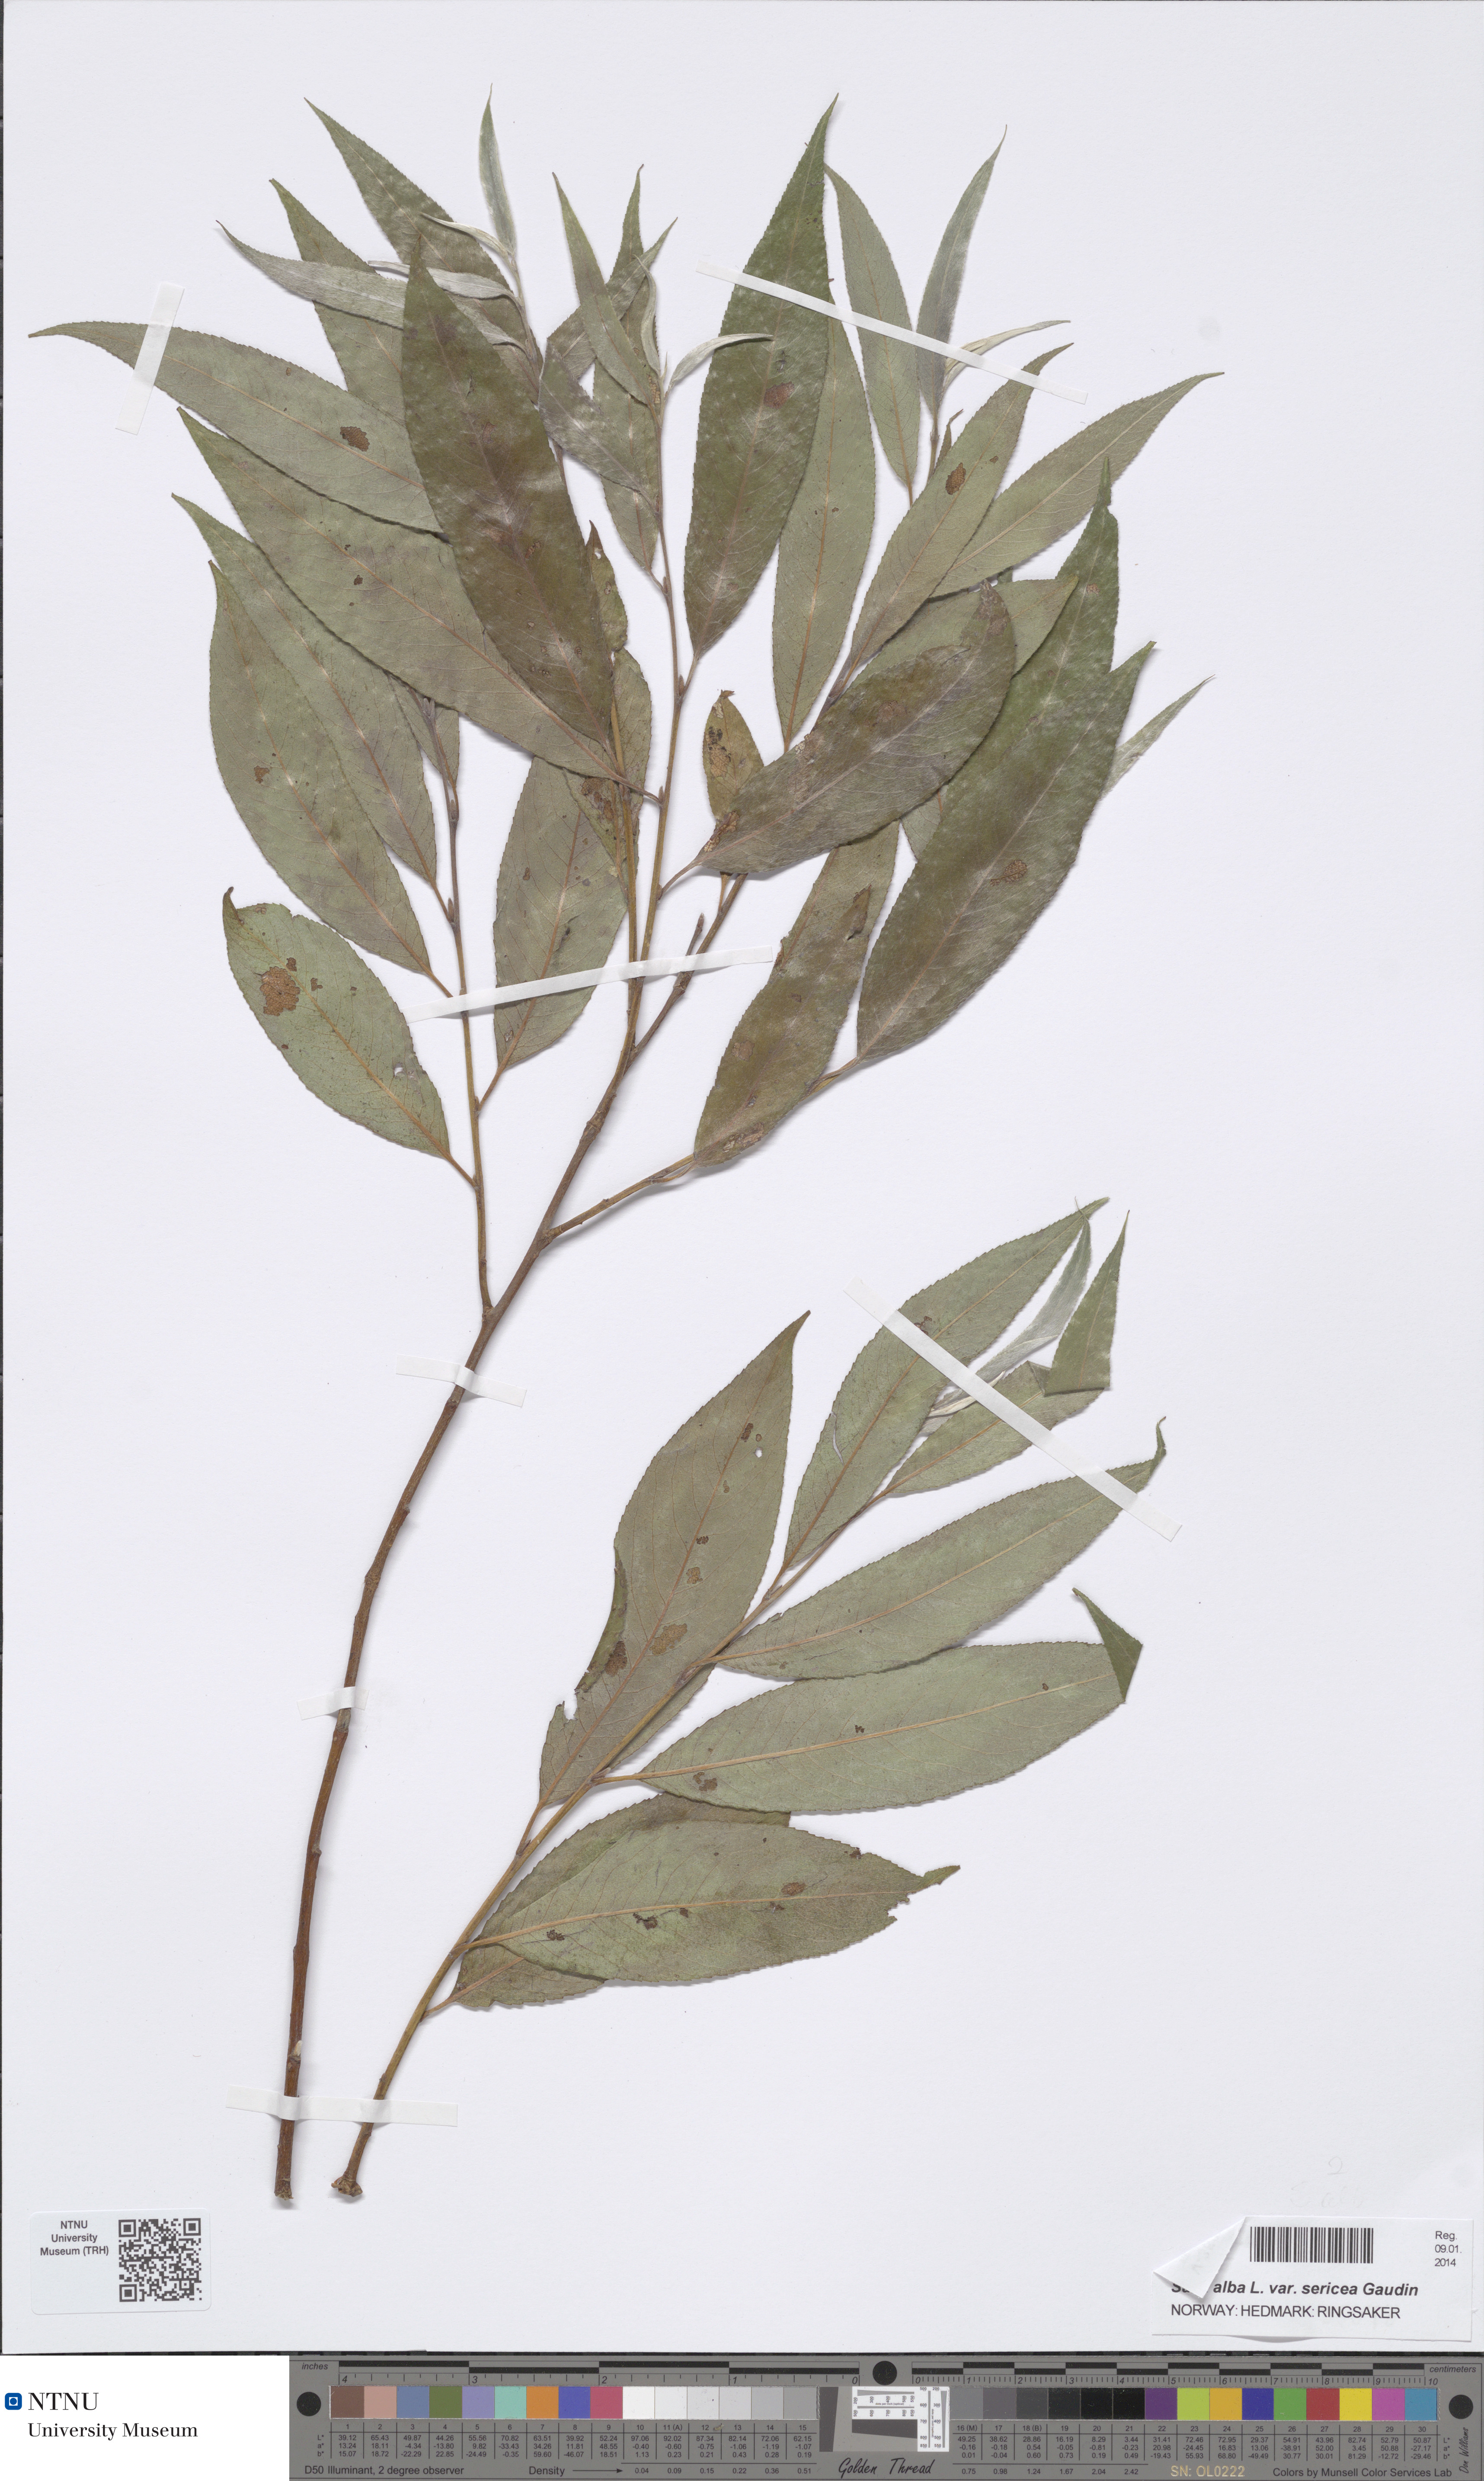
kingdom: Plantae
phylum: Tracheophyta
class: Magnoliopsida
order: Malpighiales
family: Salicaceae
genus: Salix
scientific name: Salix alba
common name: White willow
